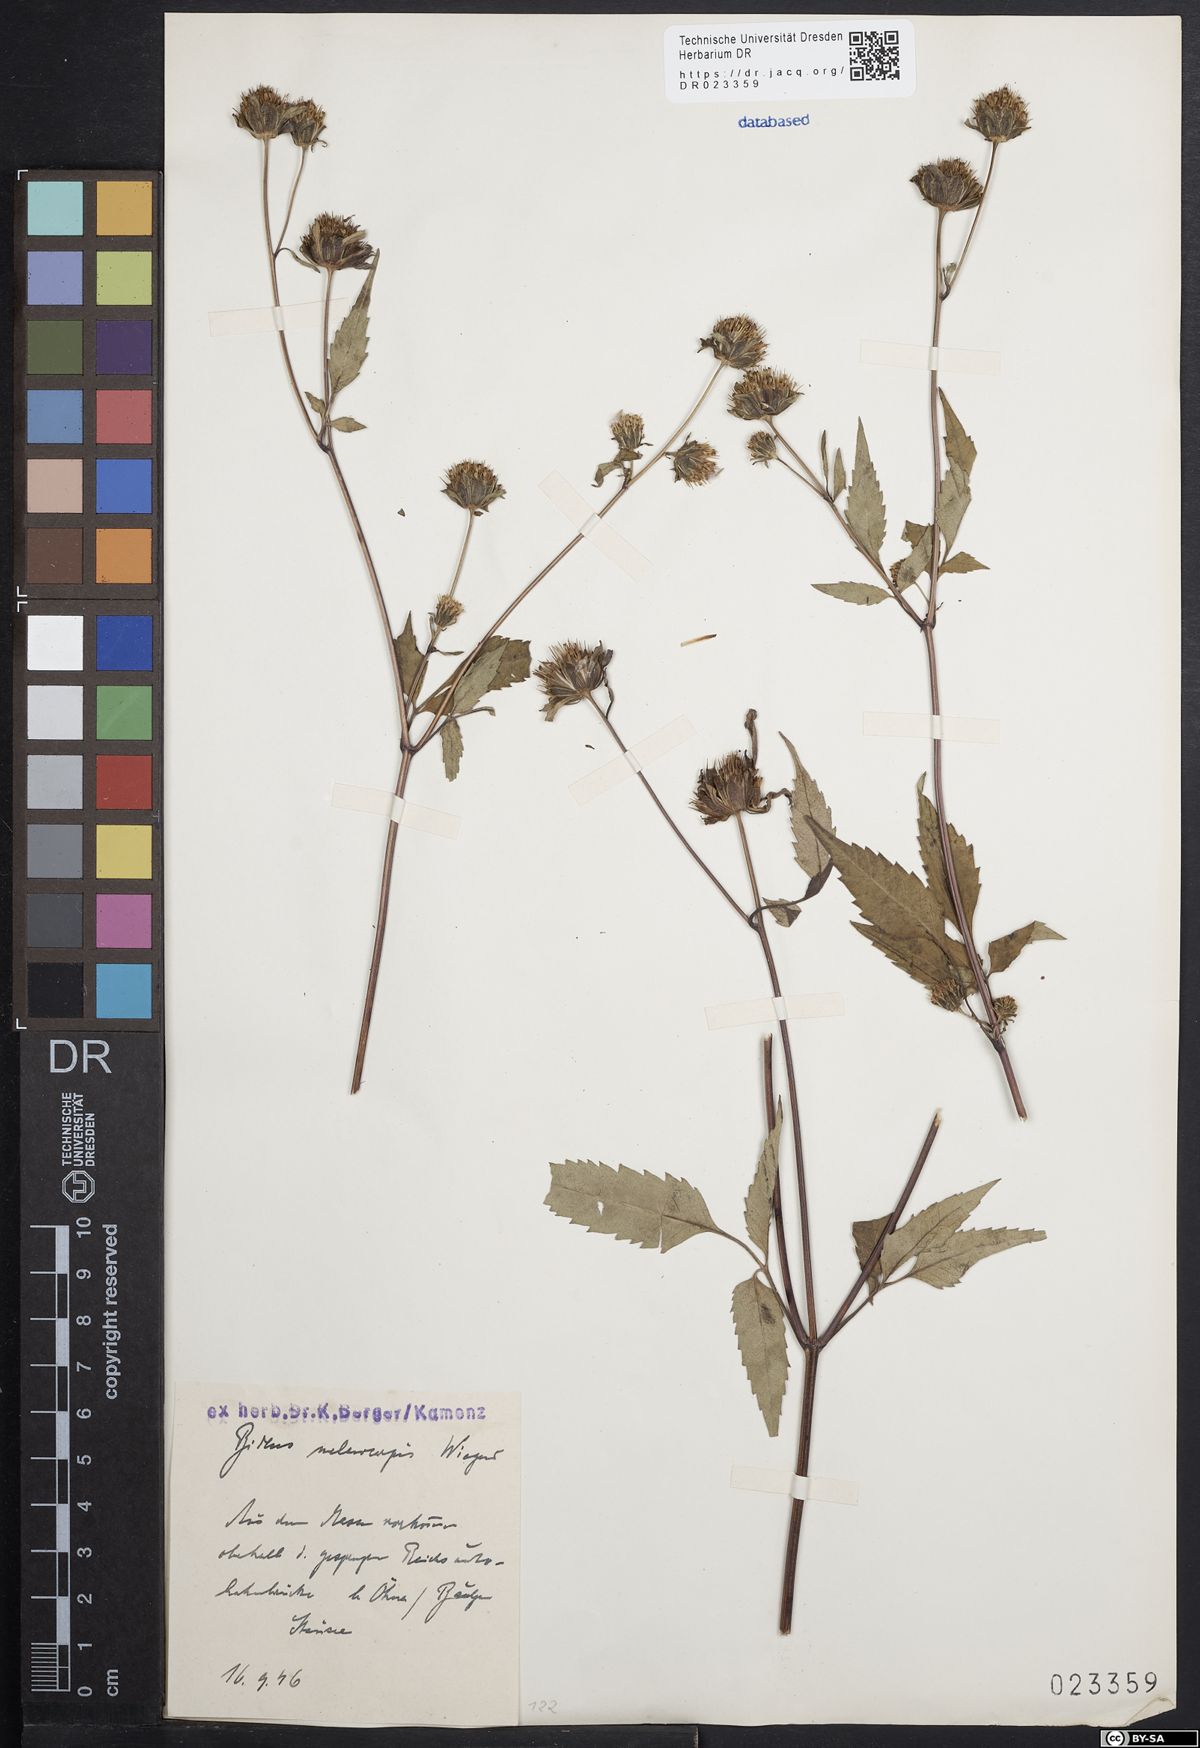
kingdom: Plantae
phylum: Tracheophyta
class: Magnoliopsida
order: Asterales
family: Asteraceae
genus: Bidens
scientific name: Bidens frondosa
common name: Beggarticks
